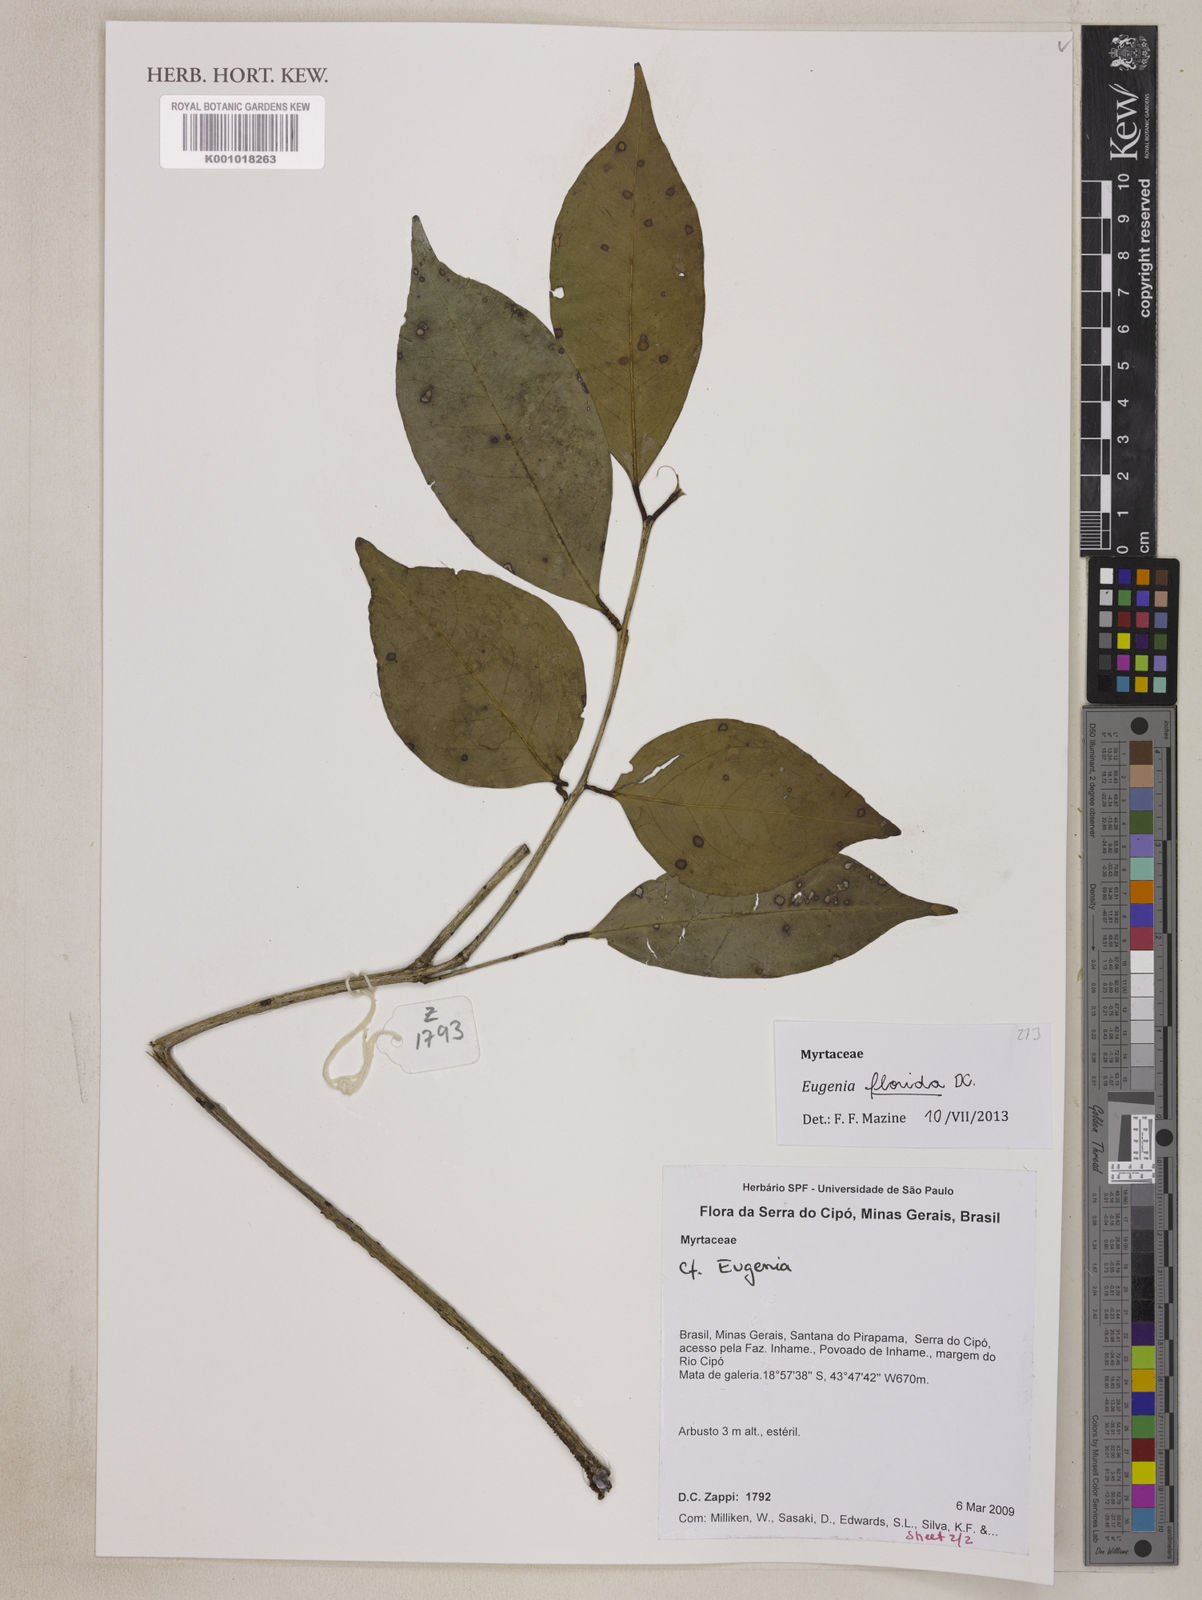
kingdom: Plantae
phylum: Tracheophyta
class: Magnoliopsida
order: Myrtales
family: Myrtaceae
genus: Eugenia
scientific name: Eugenia florida
